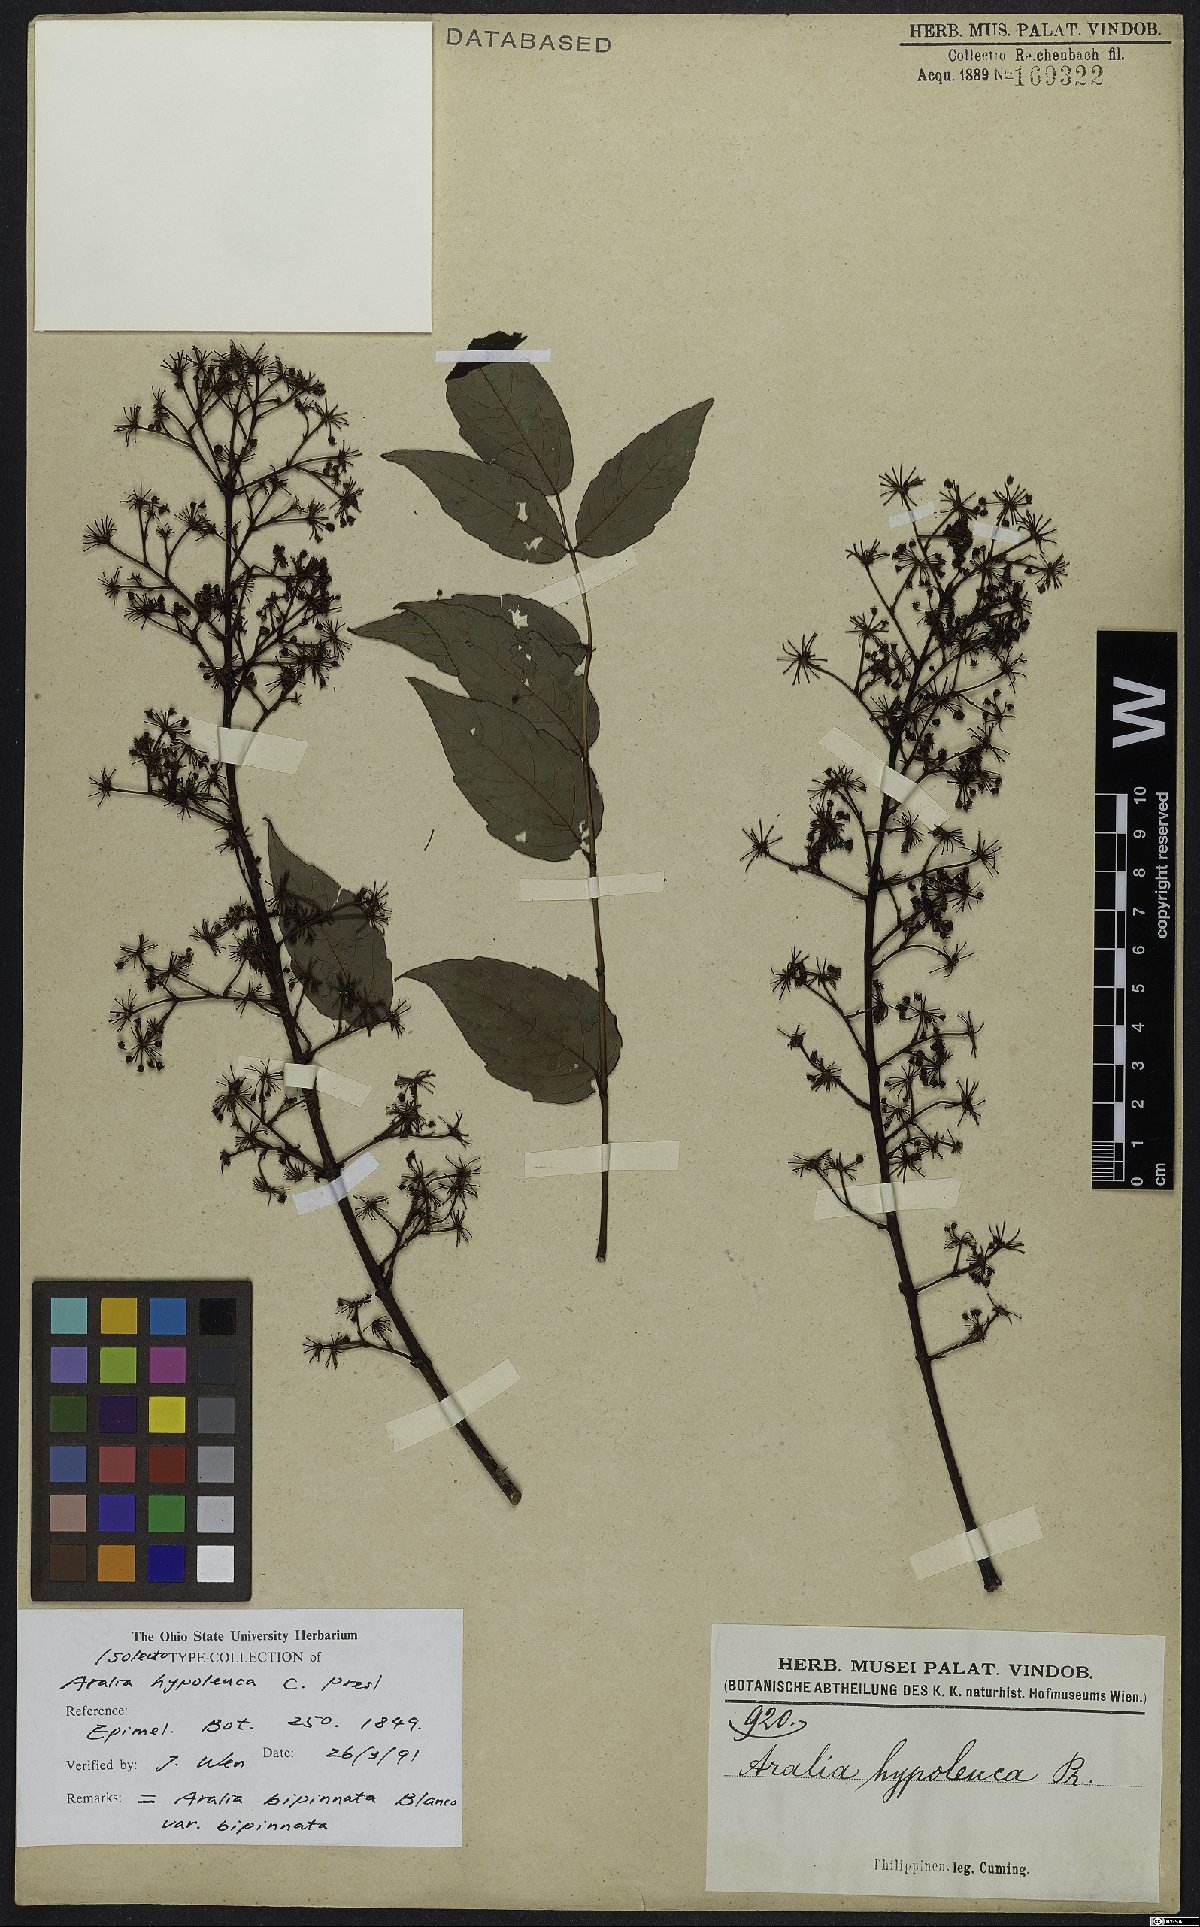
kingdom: Plantae
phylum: Tracheophyta
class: Magnoliopsida
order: Apiales
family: Araliaceae
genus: Aralia
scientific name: Aralia bipinnata
